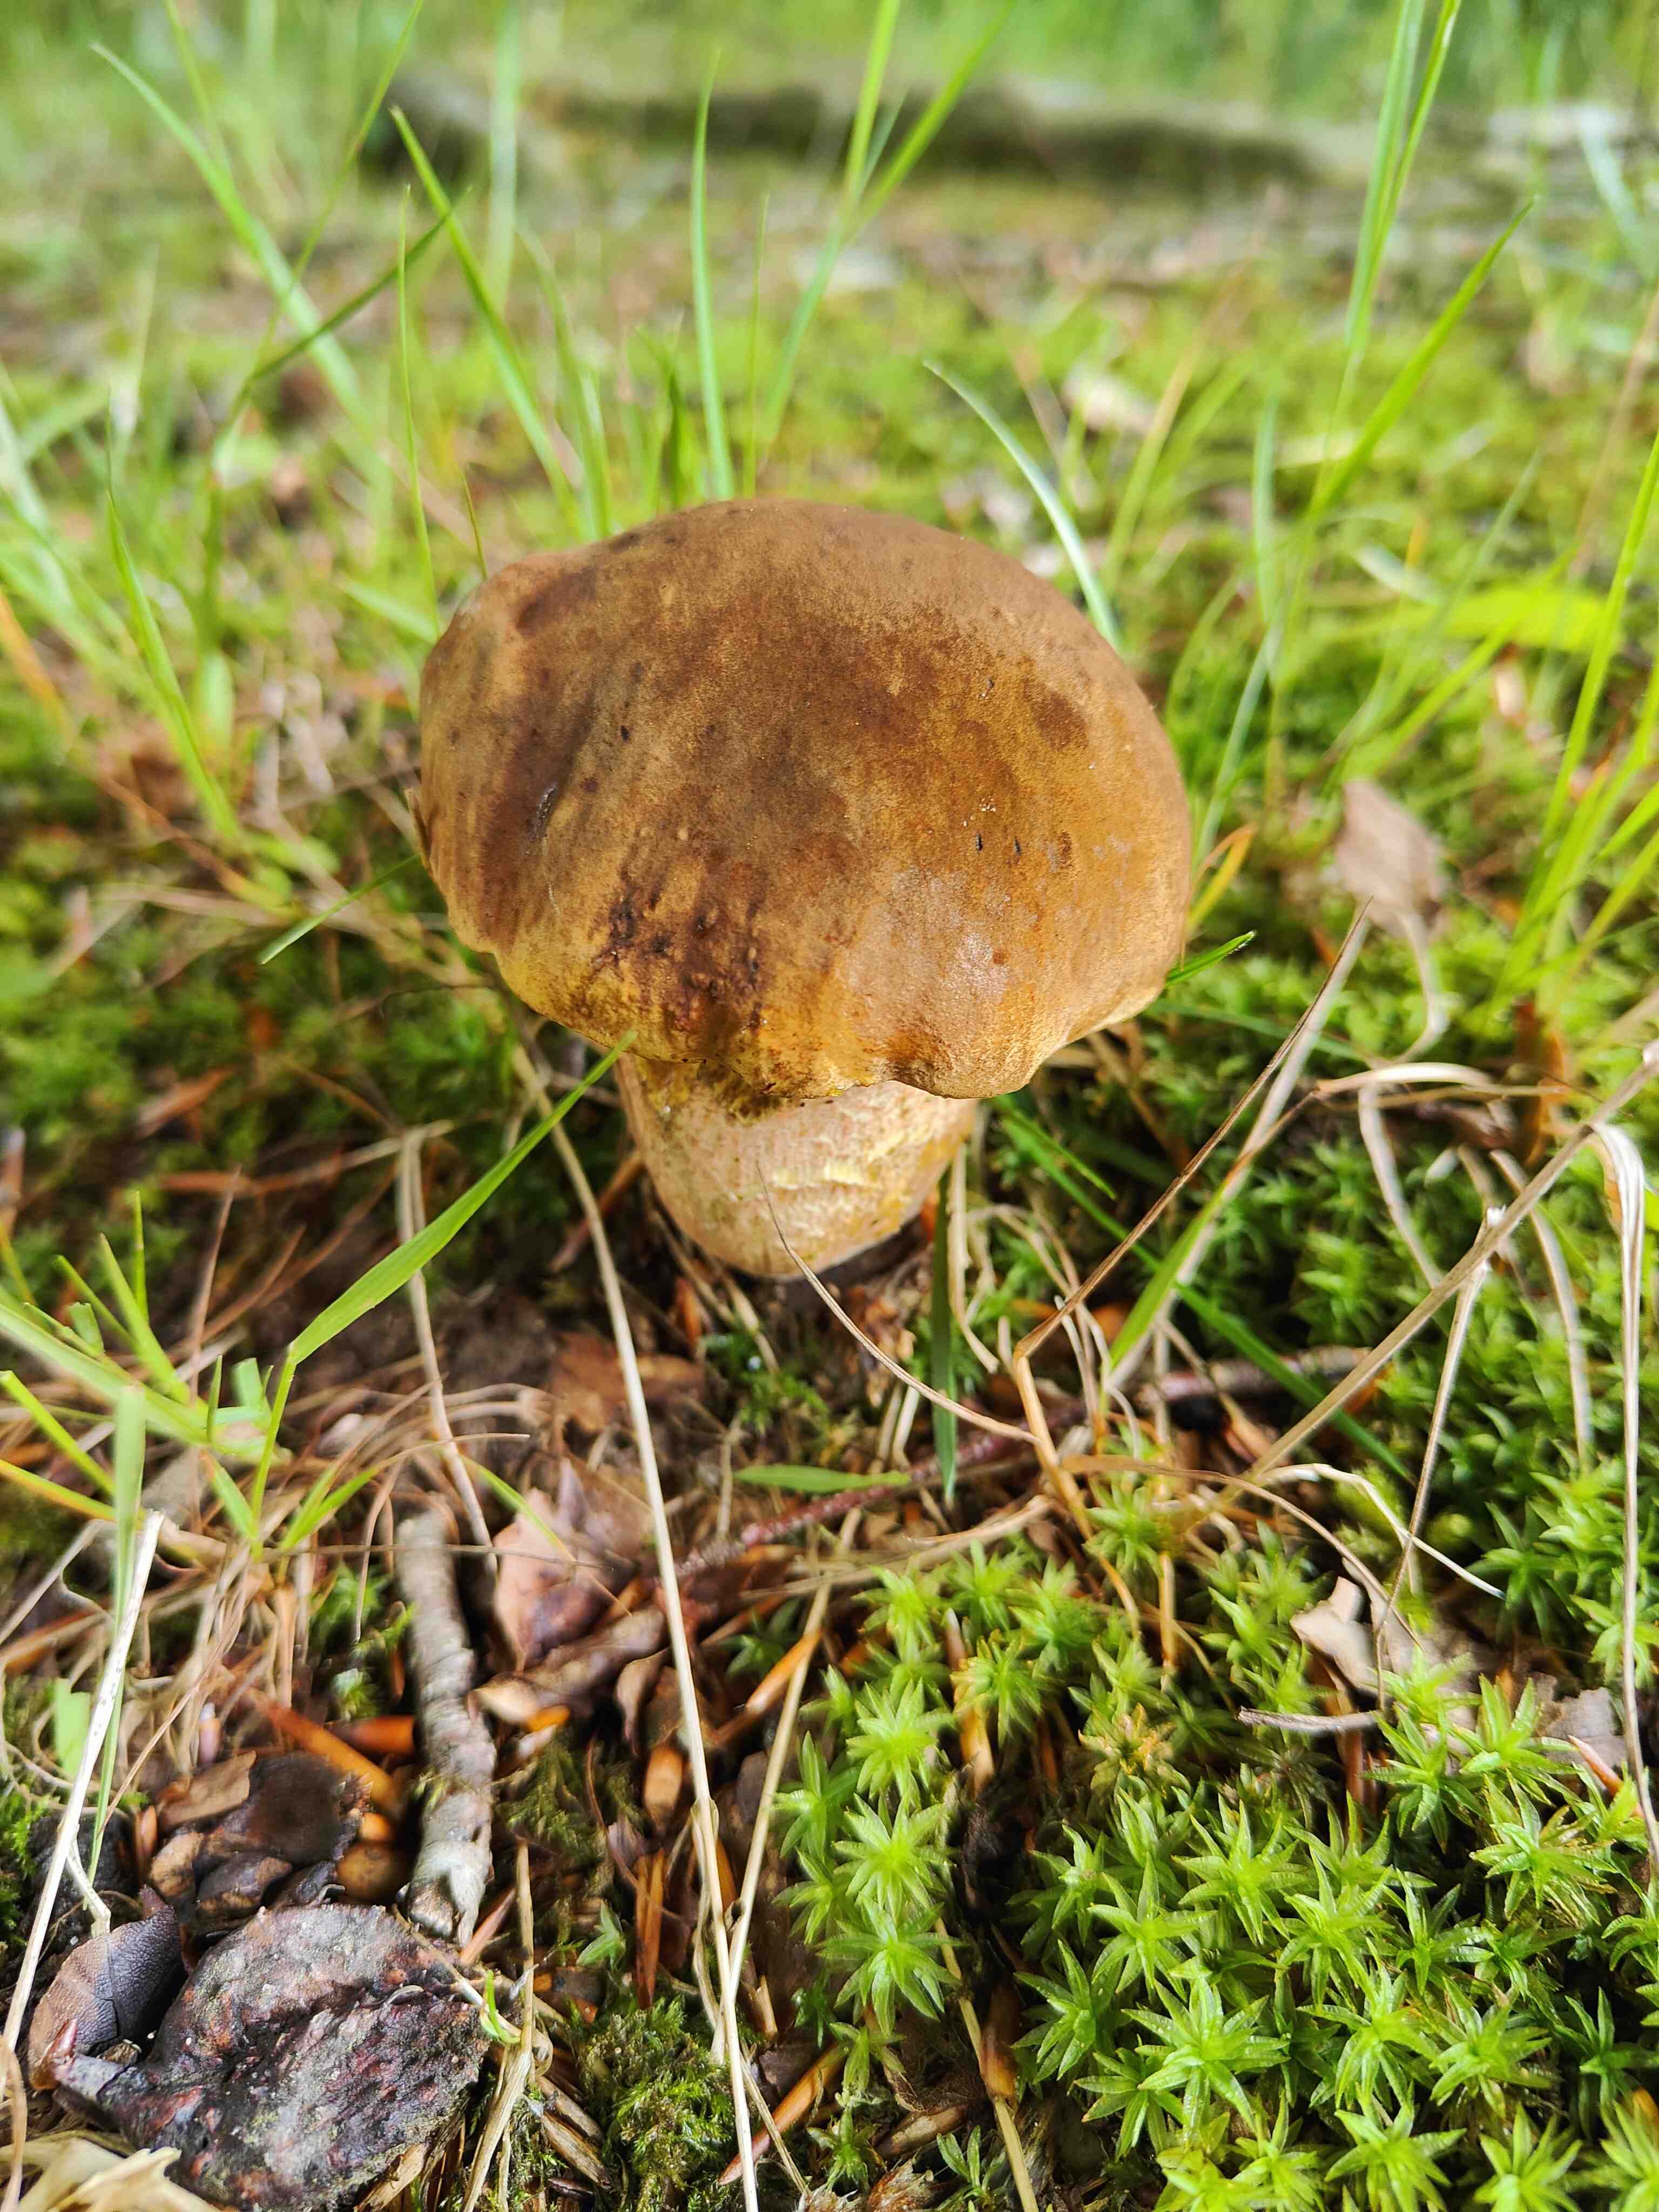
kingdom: Fungi
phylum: Basidiomycota
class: Agaricomycetes
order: Boletales
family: Boletaceae
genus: Neoboletus
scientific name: Neoboletus erythropus
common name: punktstokket indigorørhat
